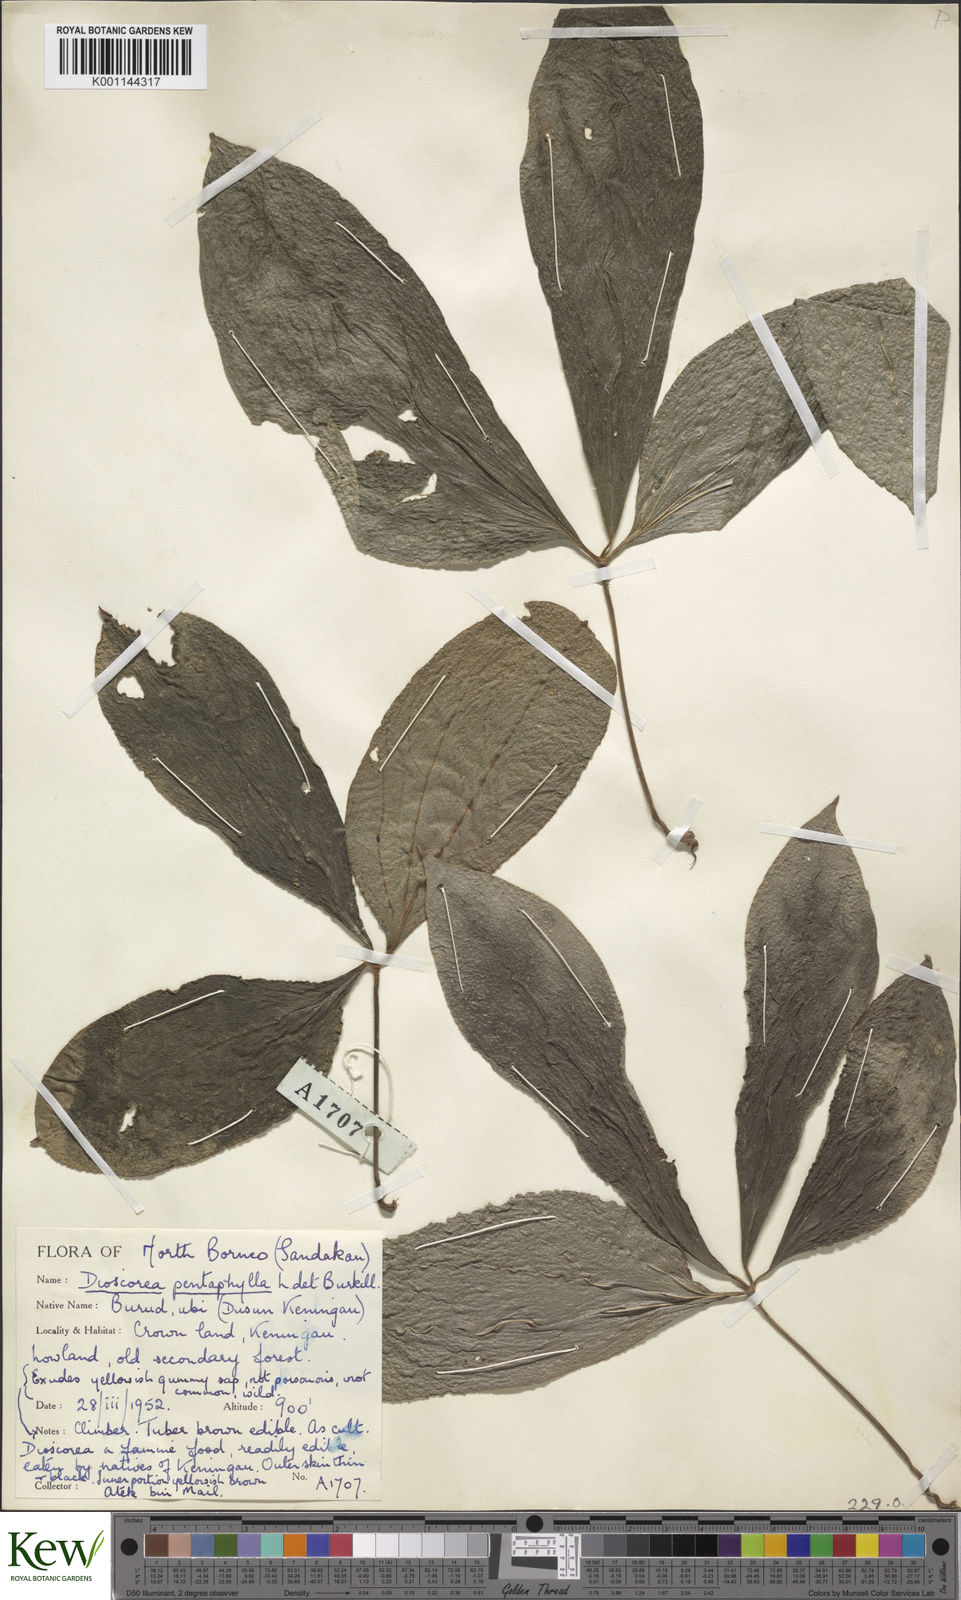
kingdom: Plantae
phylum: Tracheophyta
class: Liliopsida
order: Dioscoreales
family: Dioscoreaceae
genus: Dioscorea
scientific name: Dioscorea pentaphylla
